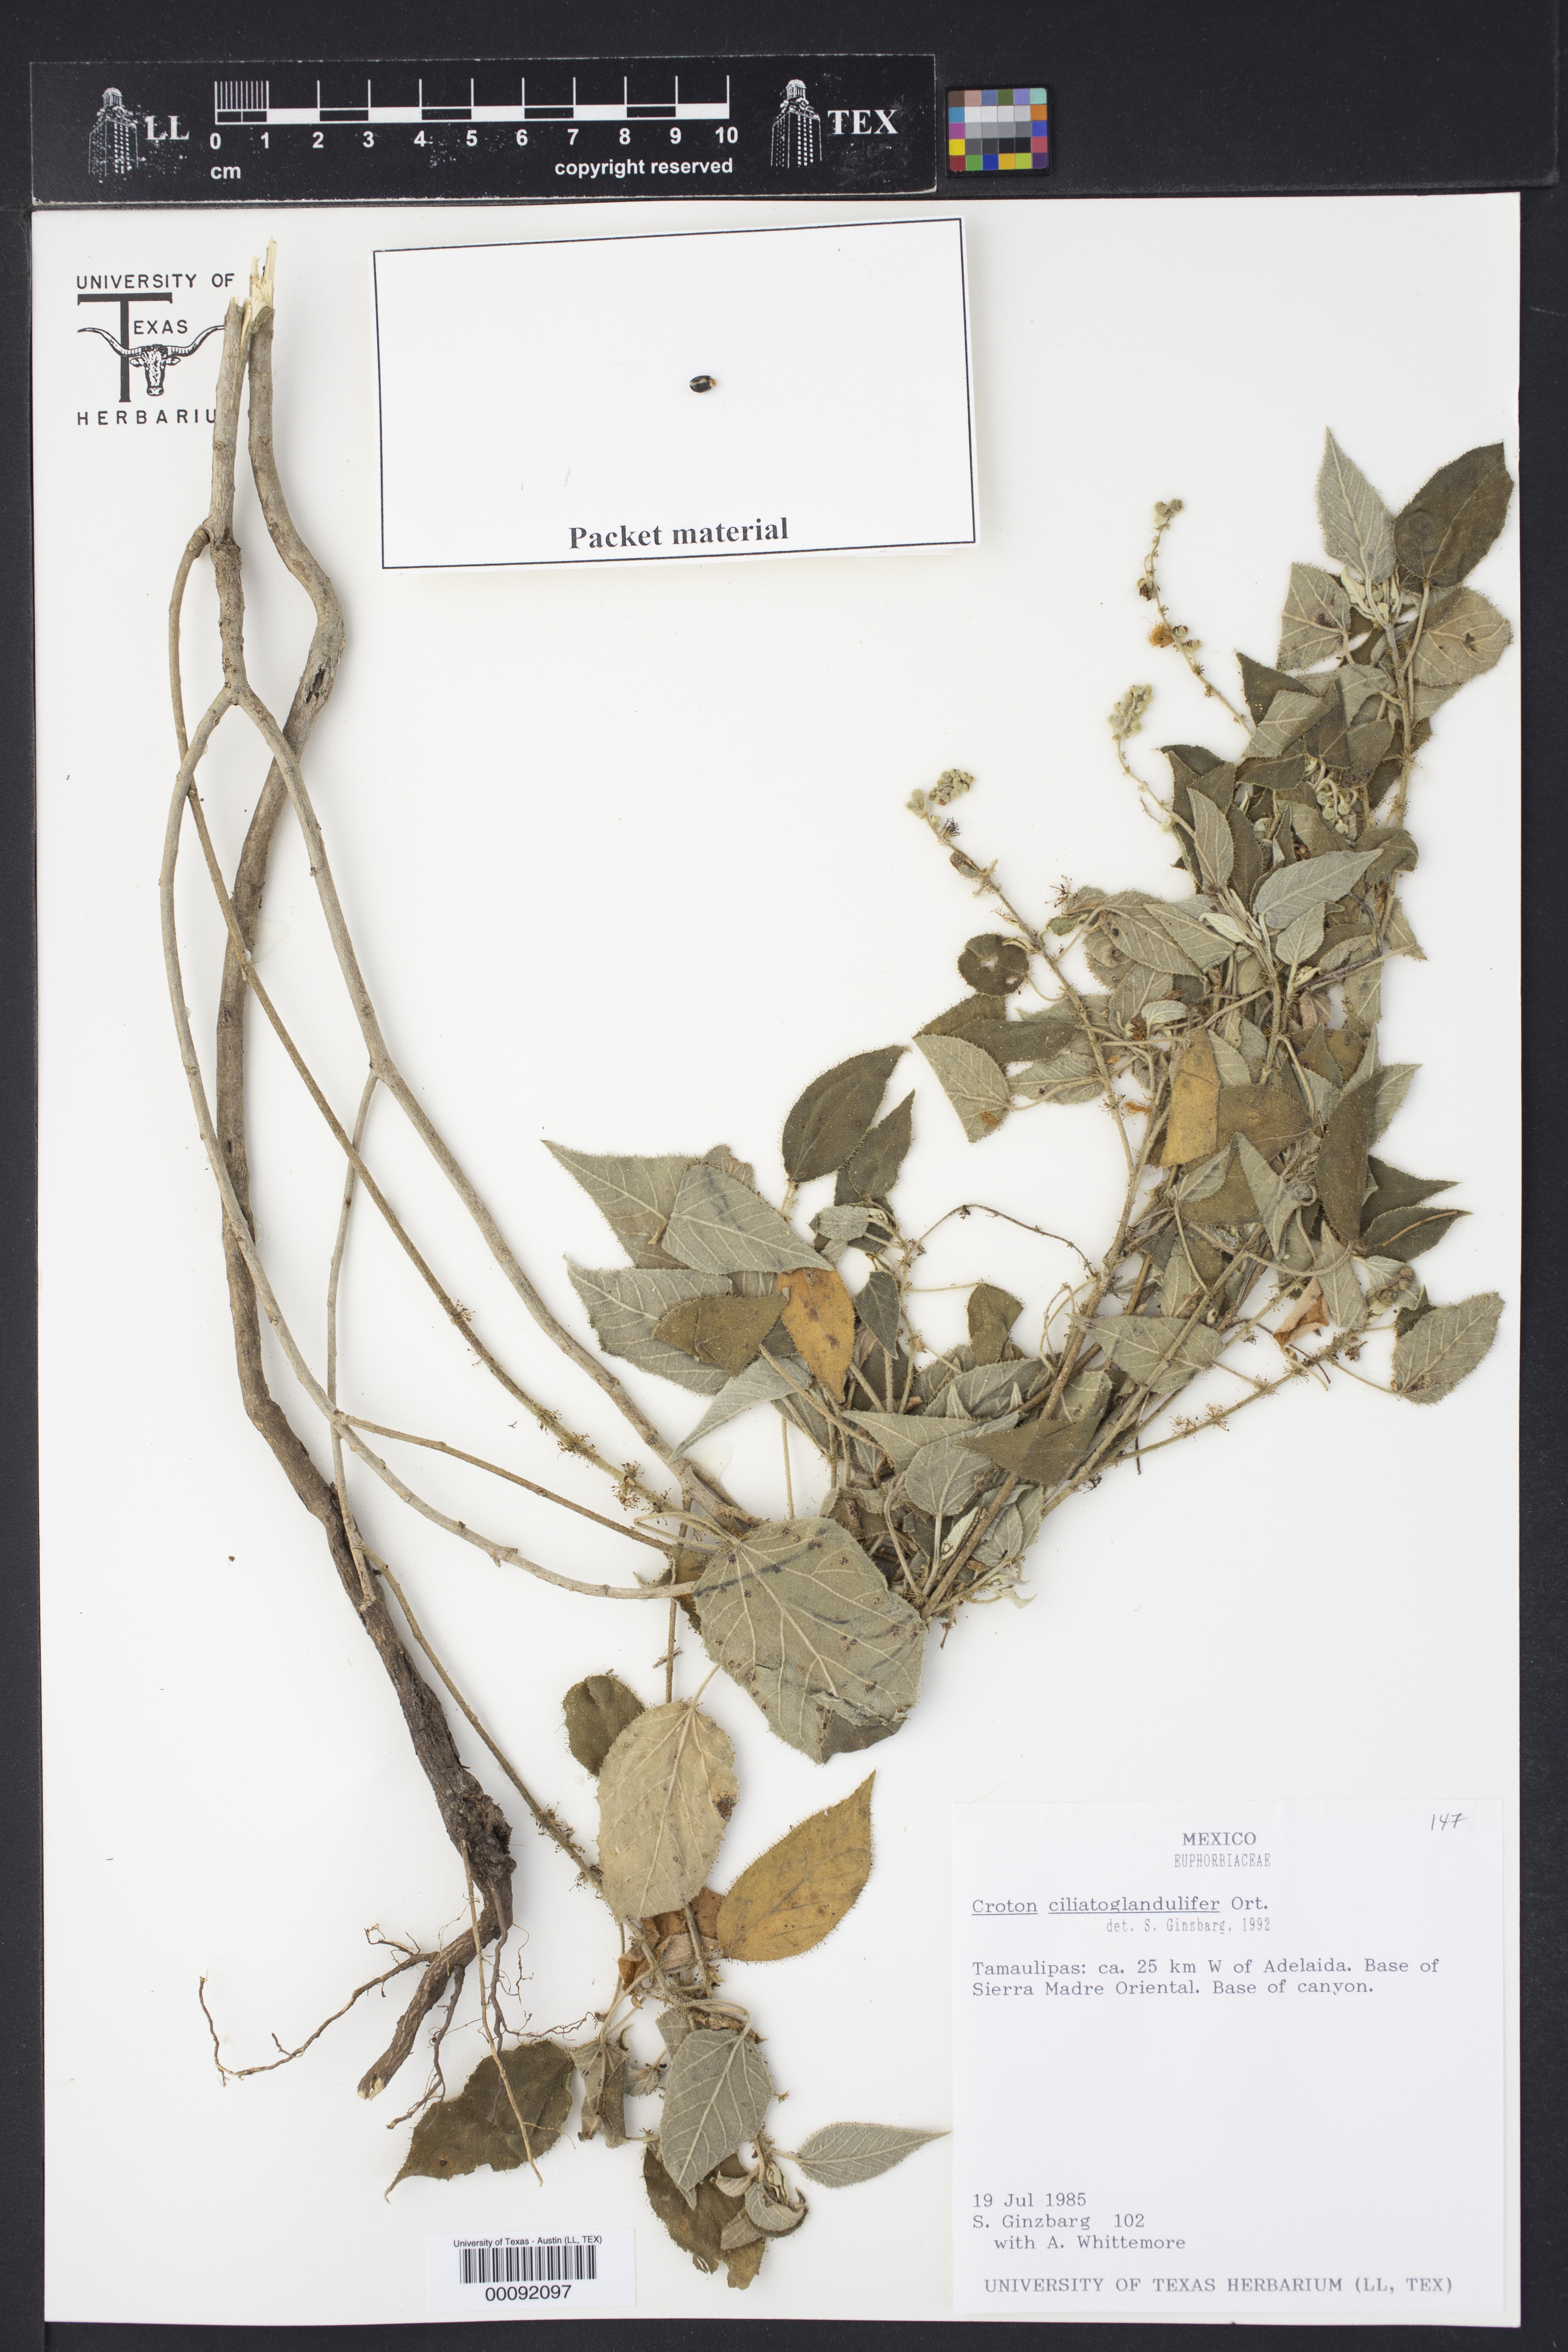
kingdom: Plantae
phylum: Tracheophyta
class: Magnoliopsida
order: Malpighiales
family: Euphorbiaceae
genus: Croton
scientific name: Croton ciliatoglandulifer
